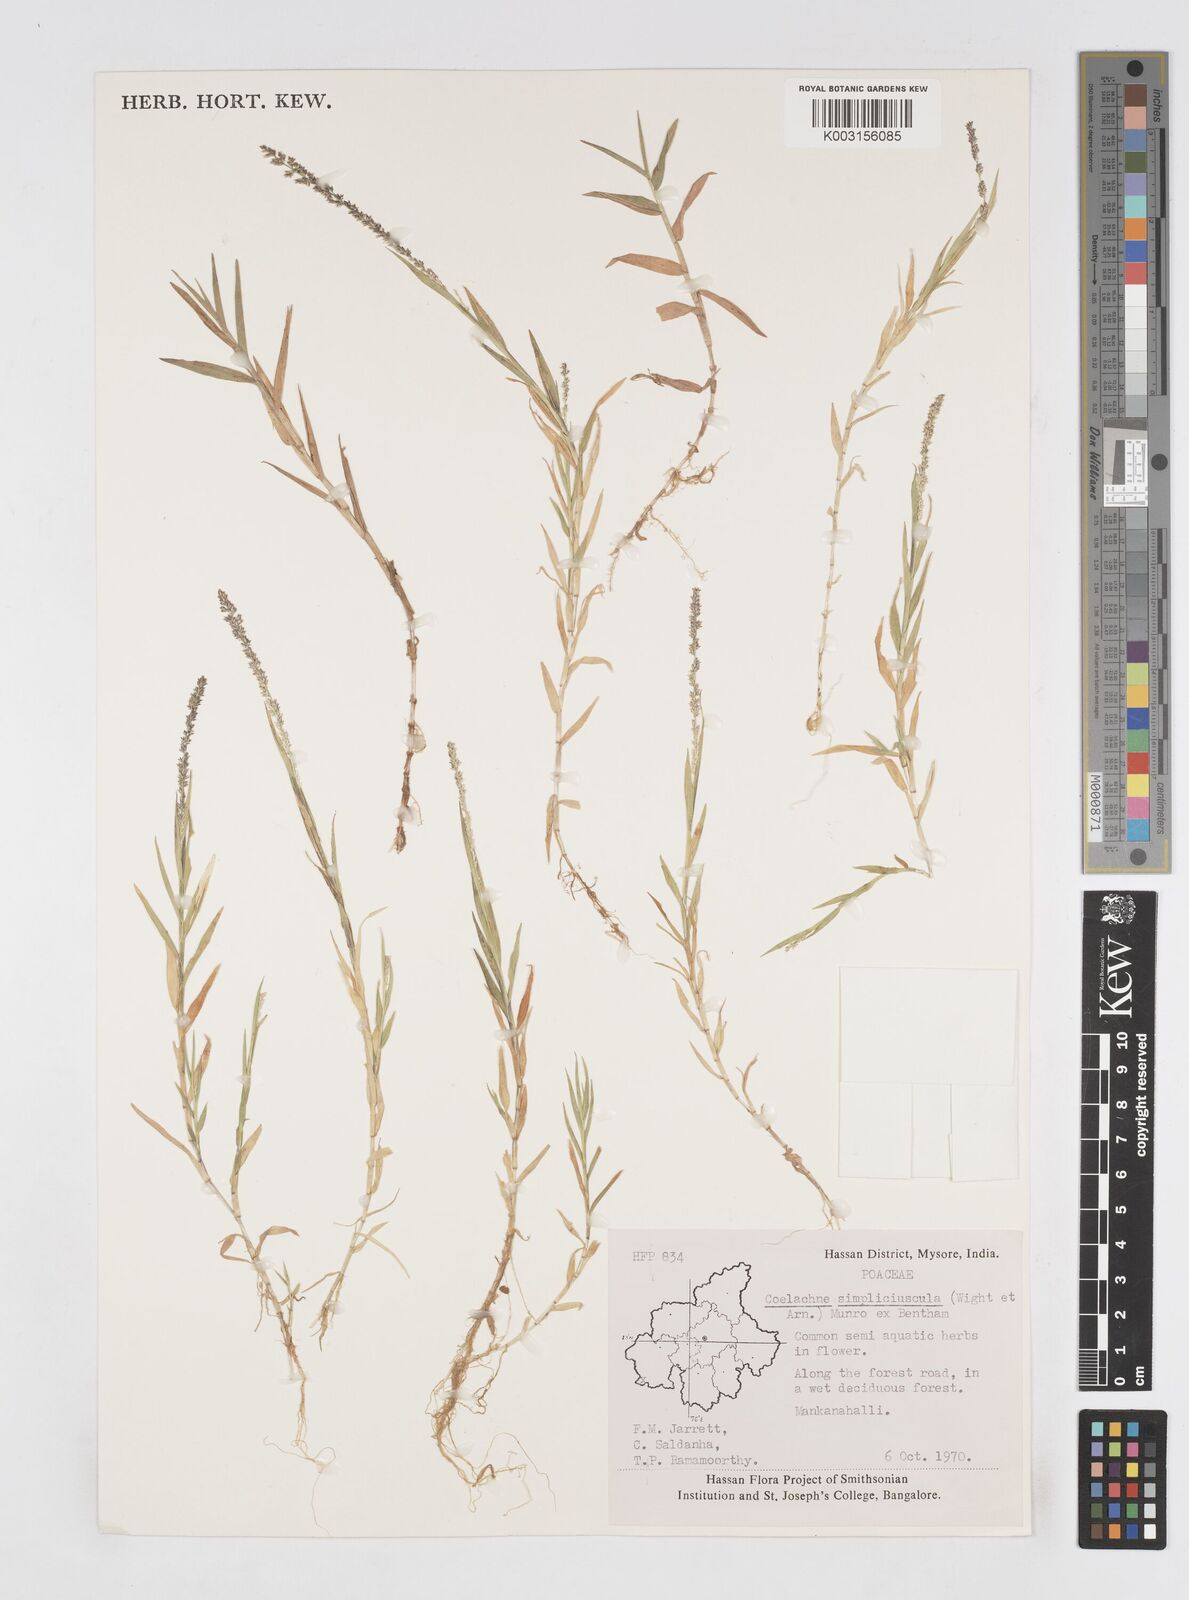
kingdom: Plantae
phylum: Tracheophyta
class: Liliopsida
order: Poales
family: Poaceae
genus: Coelachne
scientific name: Coelachne simpliciuscula
